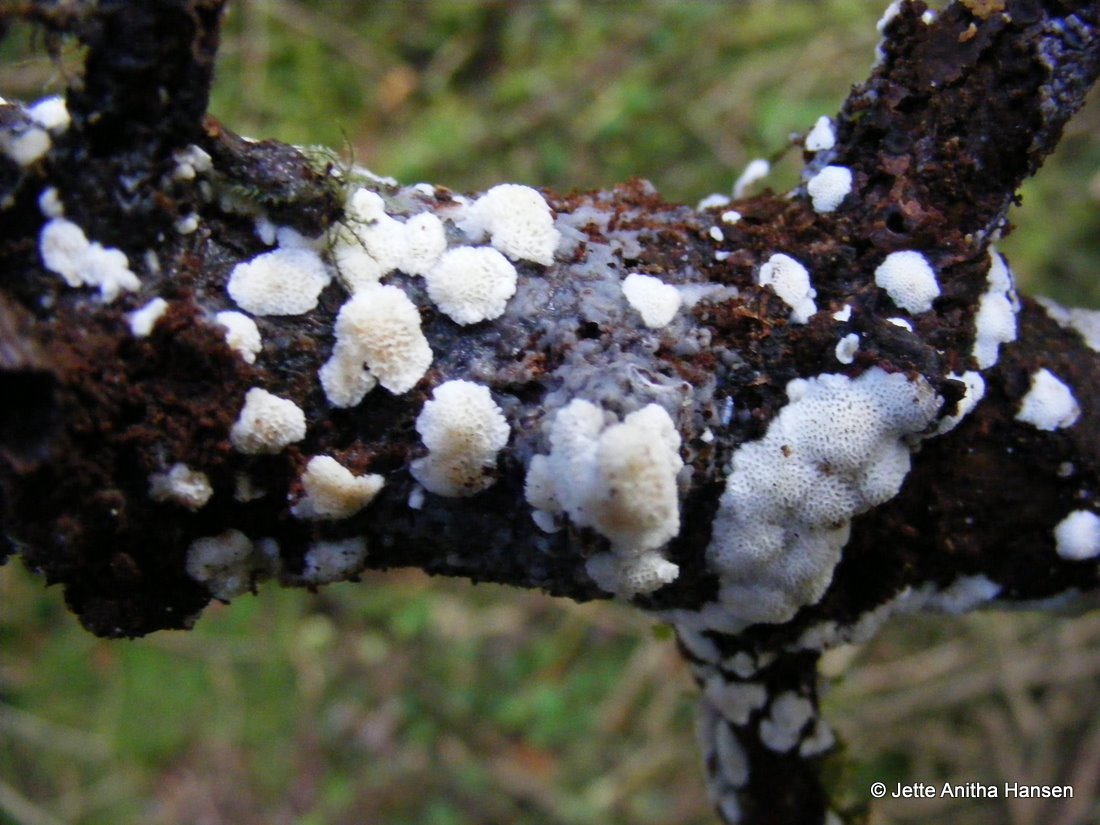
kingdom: Fungi
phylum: Basidiomycota
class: Agaricomycetes
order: Polyporales
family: Meripilaceae
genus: Rigidoporus
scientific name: Rigidoporus sanguinolentus
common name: blod-skorpeporesvamp
